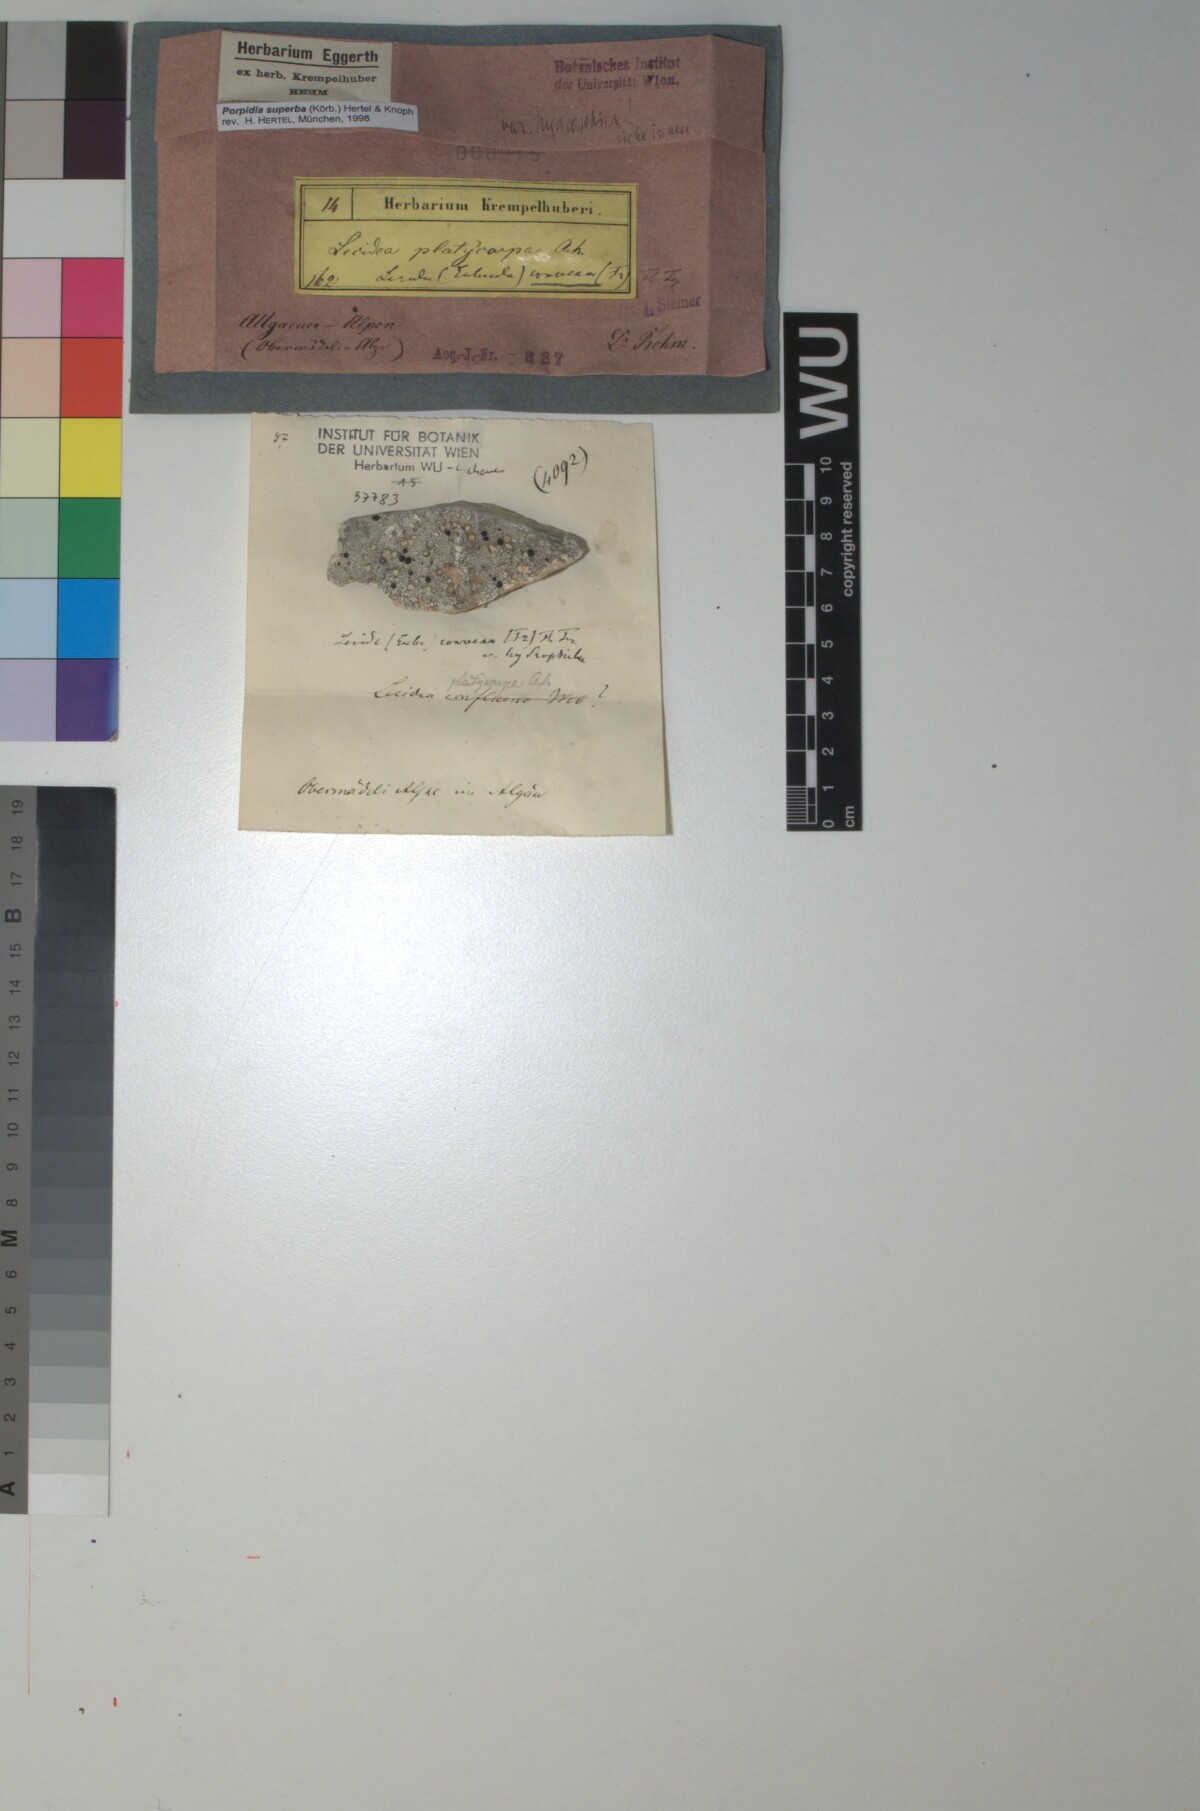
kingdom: Fungi
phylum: Ascomycota
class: Lecanoromycetes
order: Lecideales
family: Lecideaceae
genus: Porpidia
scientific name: Porpidia superba
